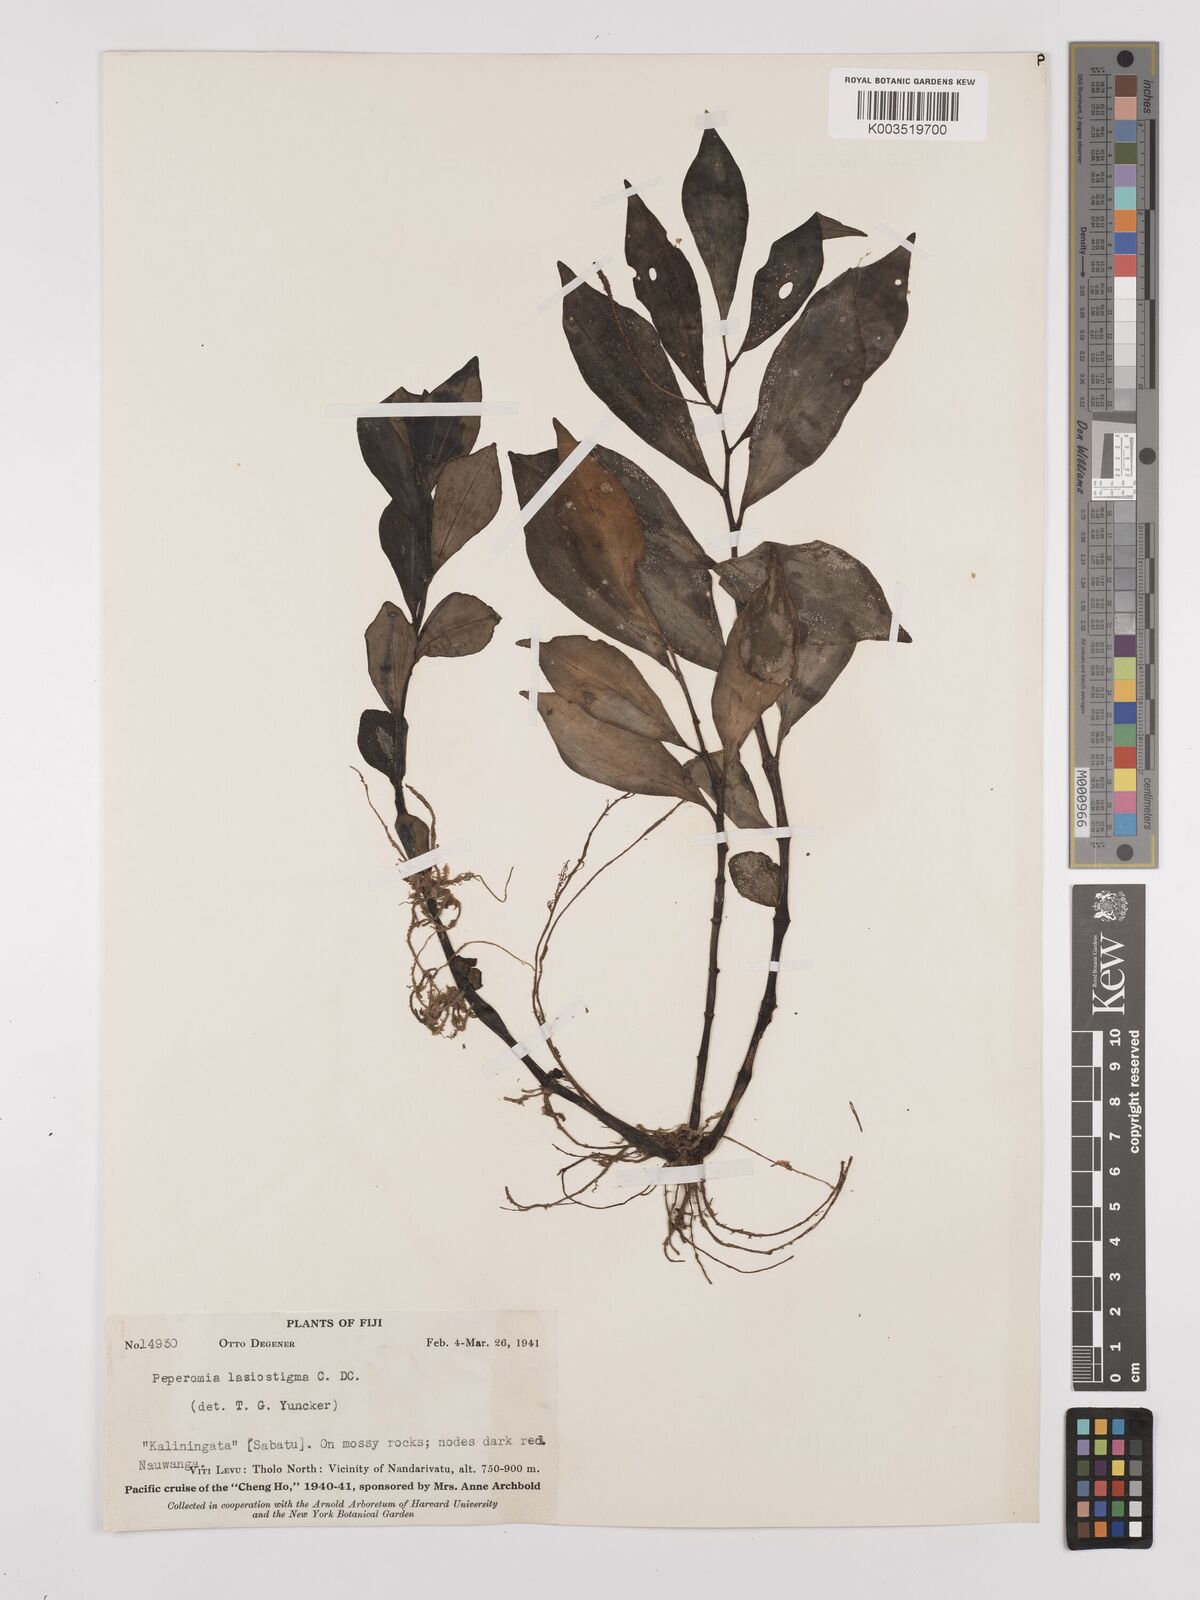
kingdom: Plantae
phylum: Tracheophyta
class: Magnoliopsida
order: Piperales
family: Piperaceae
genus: Peperomia
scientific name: Peperomia lasiostigma
